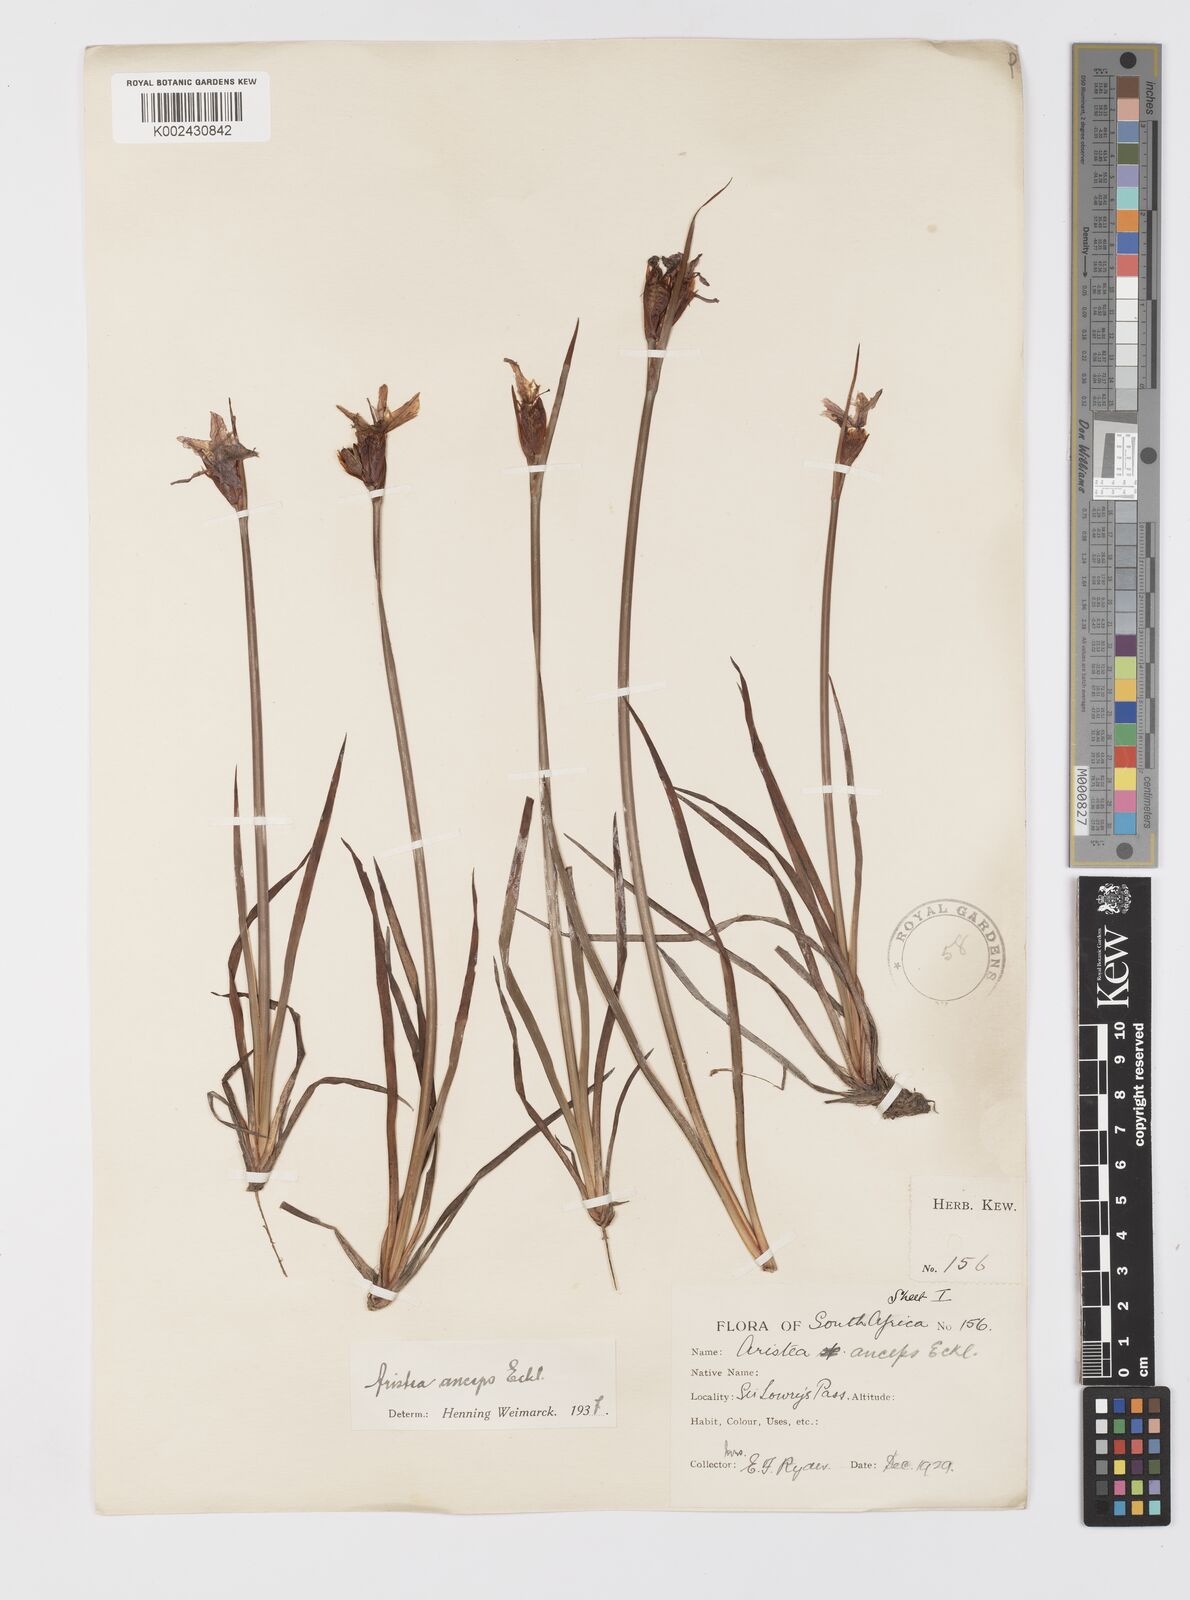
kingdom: Plantae
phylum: Tracheophyta
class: Liliopsida
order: Asparagales
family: Iridaceae
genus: Aristea
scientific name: Aristea anceps
